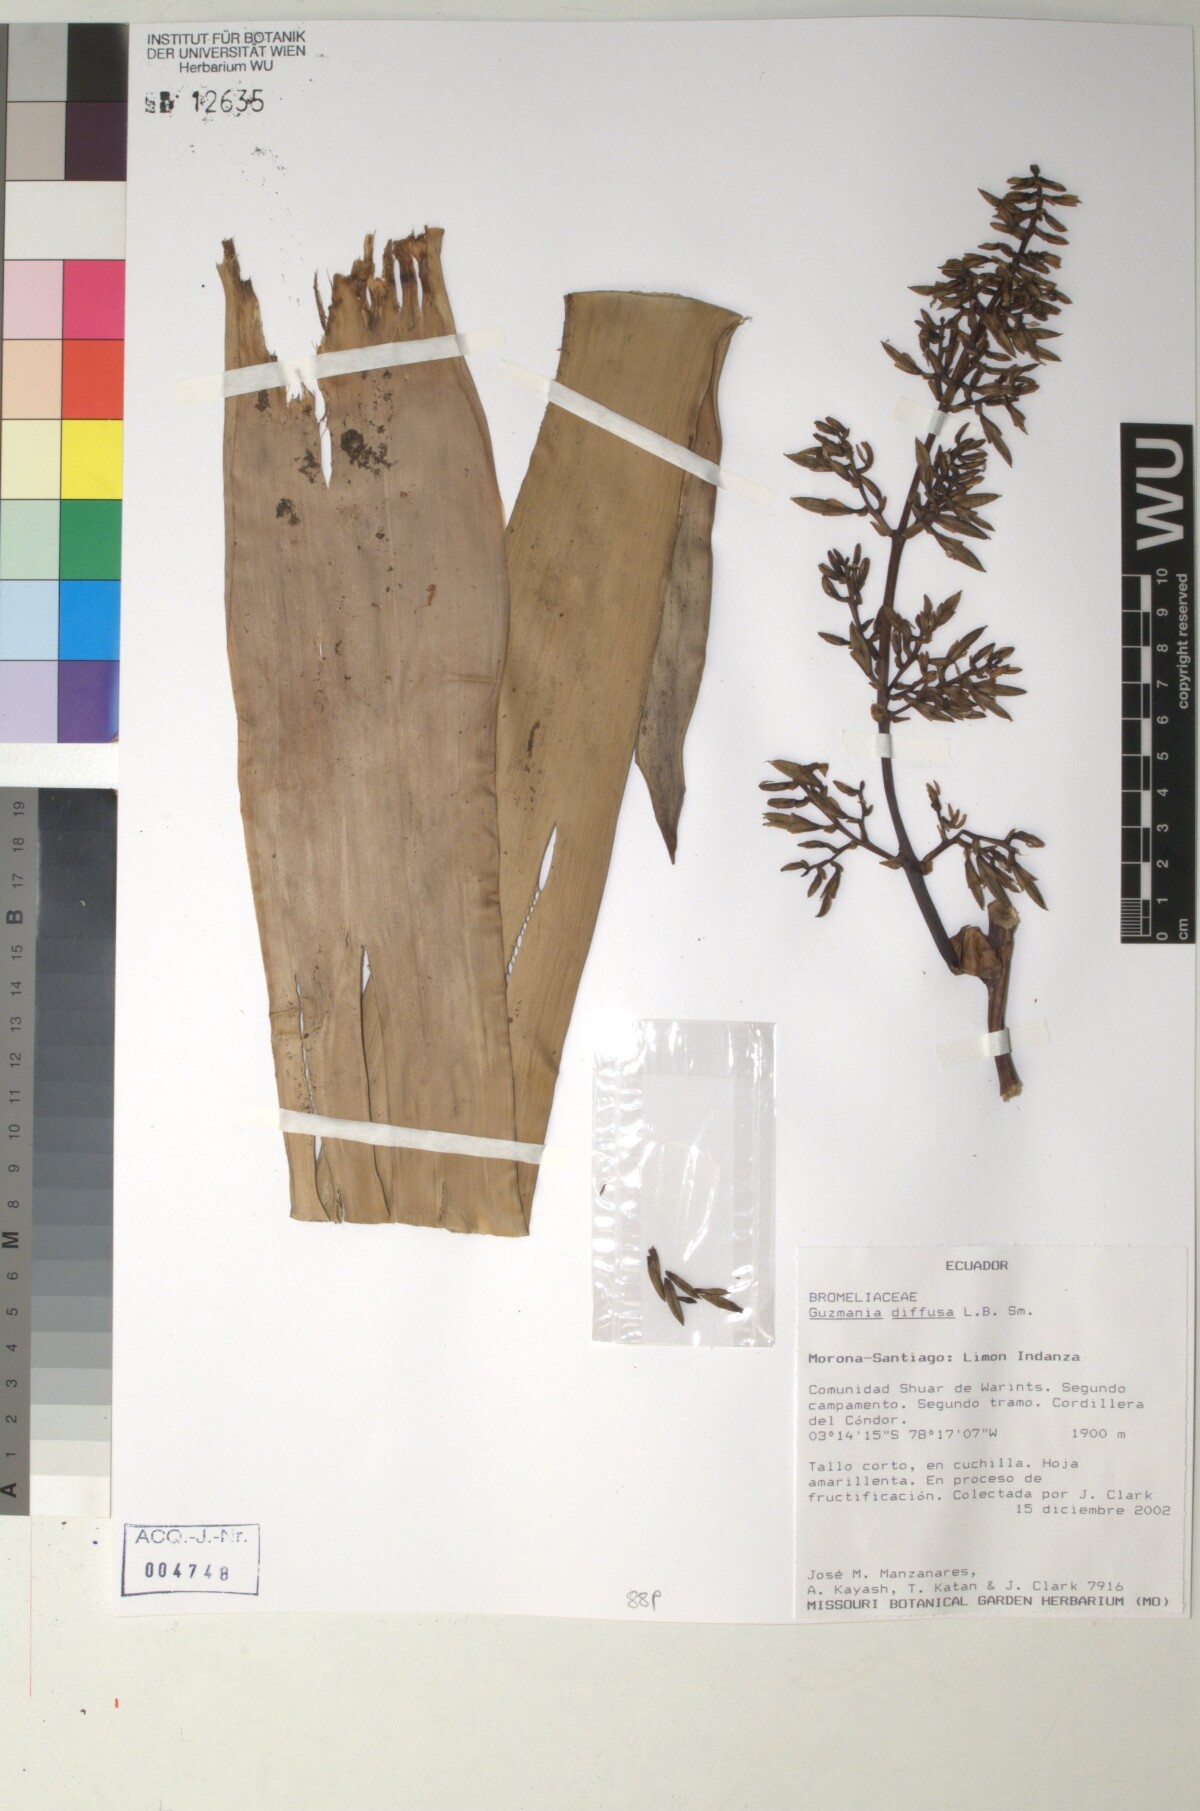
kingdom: Plantae
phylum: Tracheophyta
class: Liliopsida
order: Poales
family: Bromeliaceae
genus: Guzmania
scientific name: Guzmania diffusa
